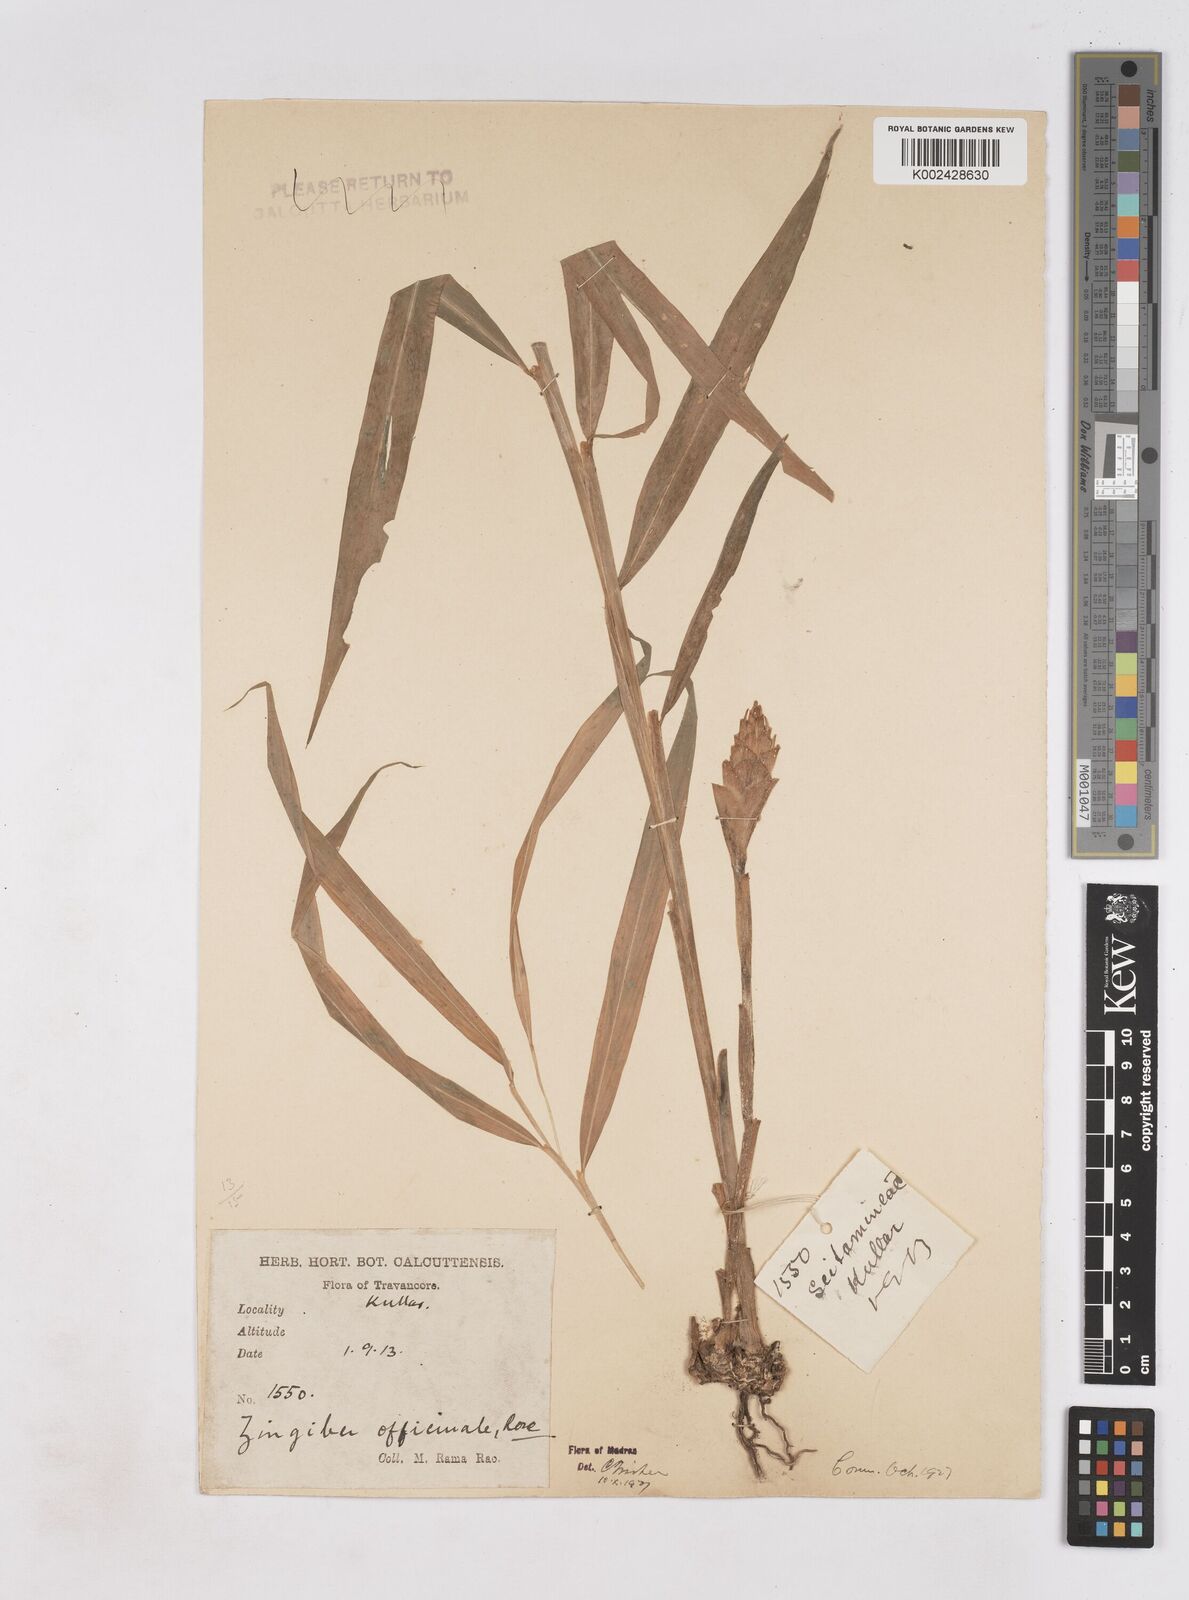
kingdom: Plantae
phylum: Tracheophyta
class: Liliopsida
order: Zingiberales
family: Zingiberaceae
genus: Zingiber
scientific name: Zingiber officinale
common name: Ginger
